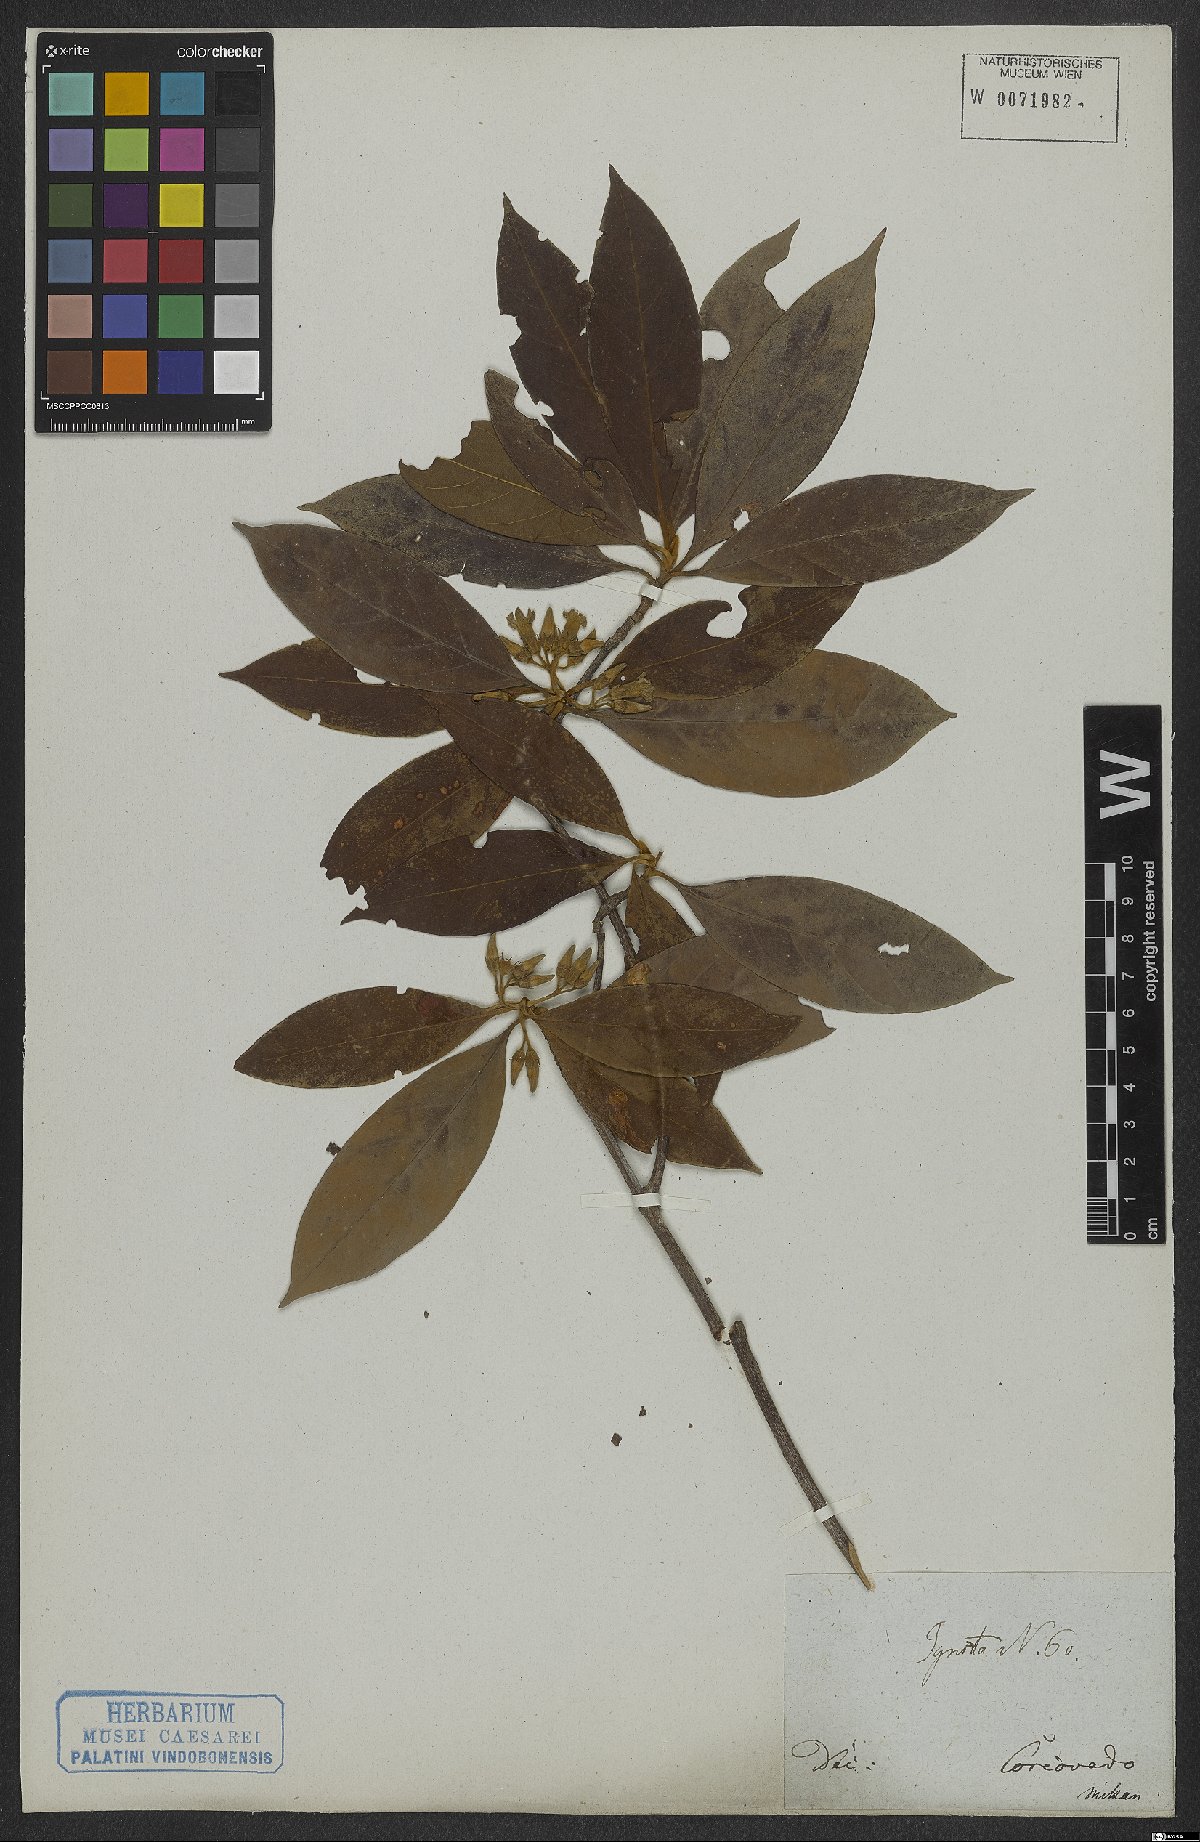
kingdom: Plantae
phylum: Tracheophyta
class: Magnoliopsida
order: Gentianales
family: Rubiaceae
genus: Amaioua
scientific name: Amaioua
